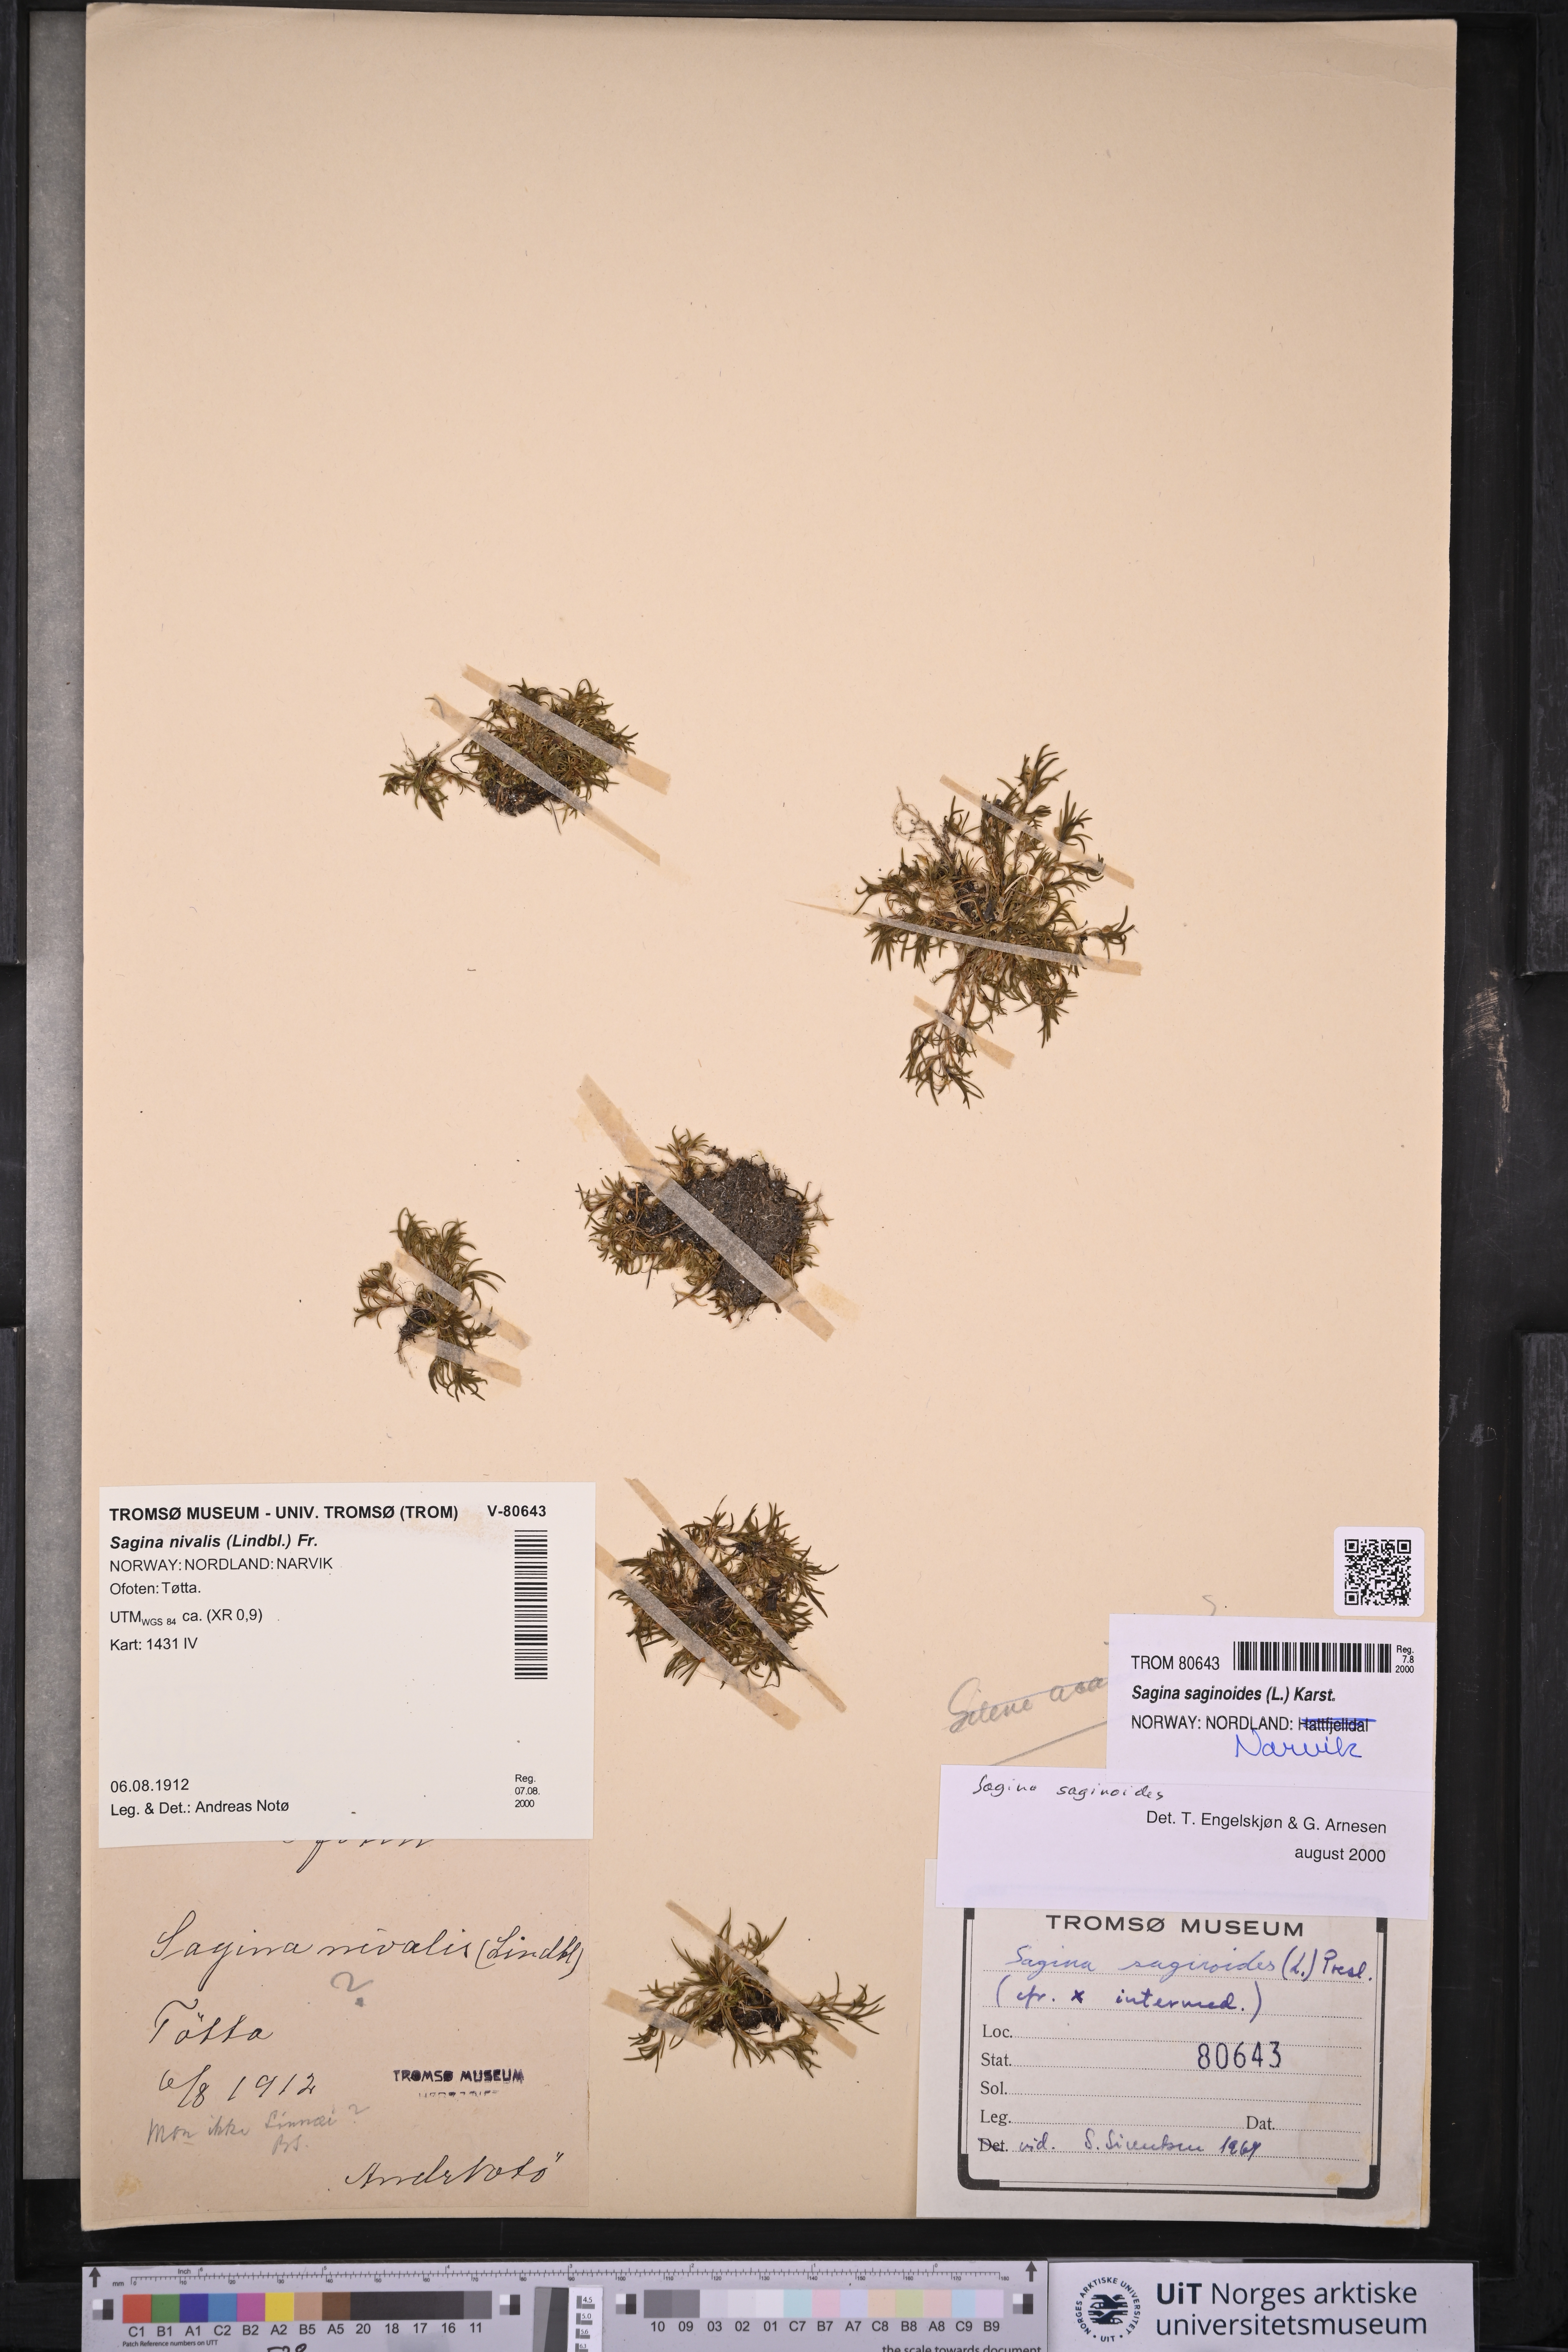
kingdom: Plantae
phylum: Tracheophyta
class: Magnoliopsida
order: Caryophyllales
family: Caryophyllaceae
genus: Sagina
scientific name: Sagina saginoides
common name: Alpine pearlwort
